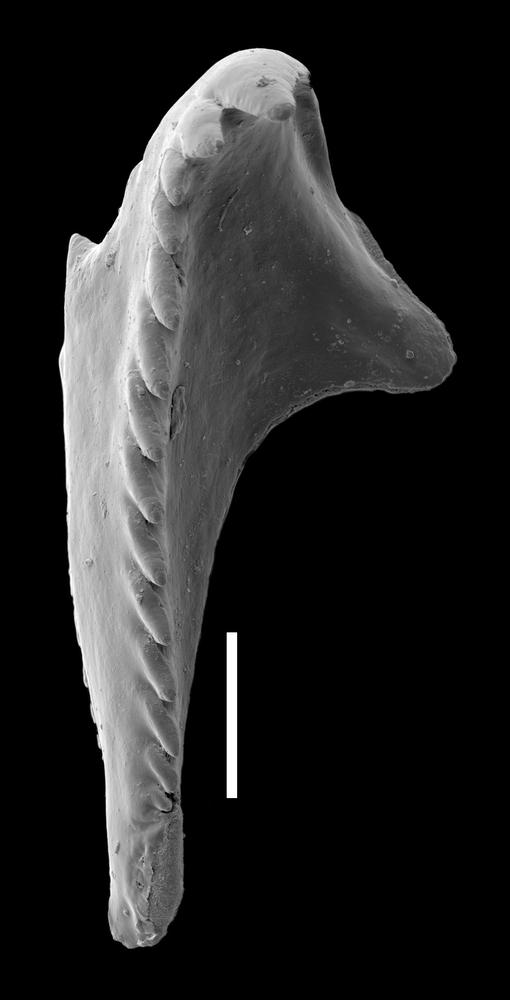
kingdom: Animalia
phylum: Annelida
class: Polychaeta
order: Eunicida
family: Polychaetaspidae
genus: Oenonites
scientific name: Oenonites
